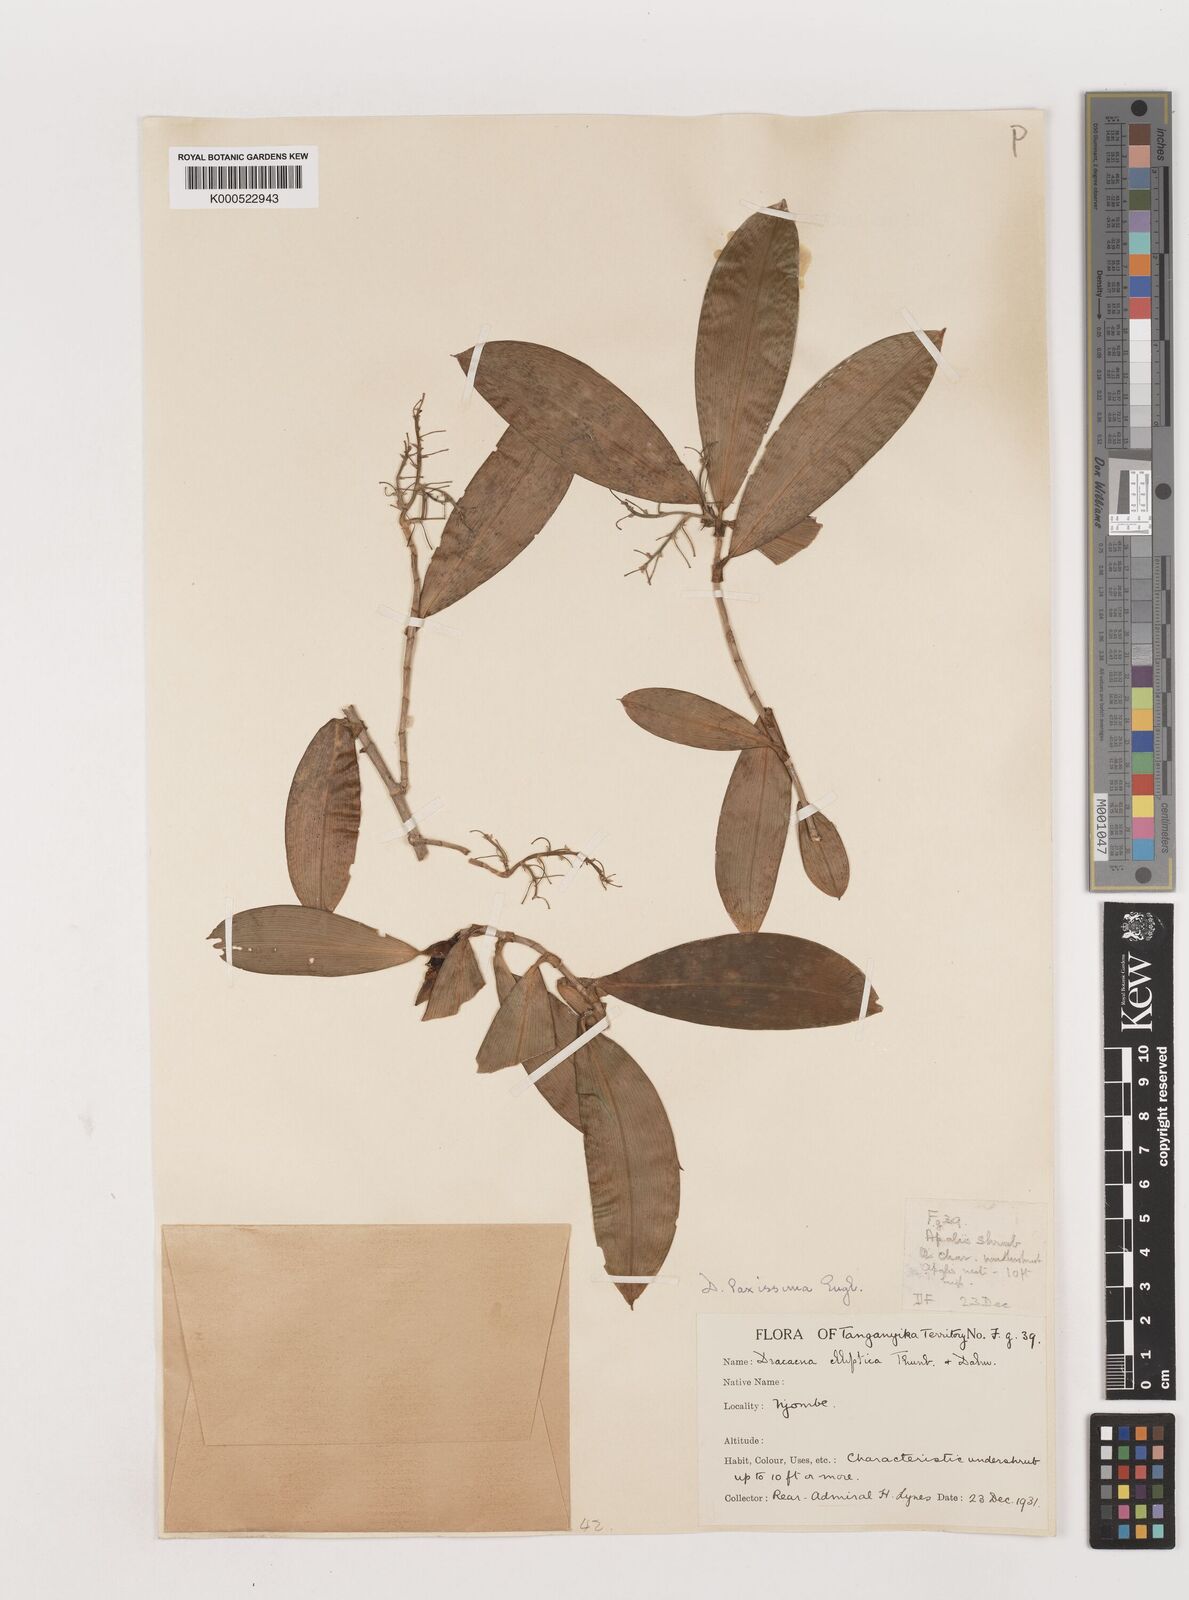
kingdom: Plantae
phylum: Tracheophyta
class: Liliopsida
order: Asparagales
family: Asparagaceae
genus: Dracaena
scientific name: Dracaena laxissima
